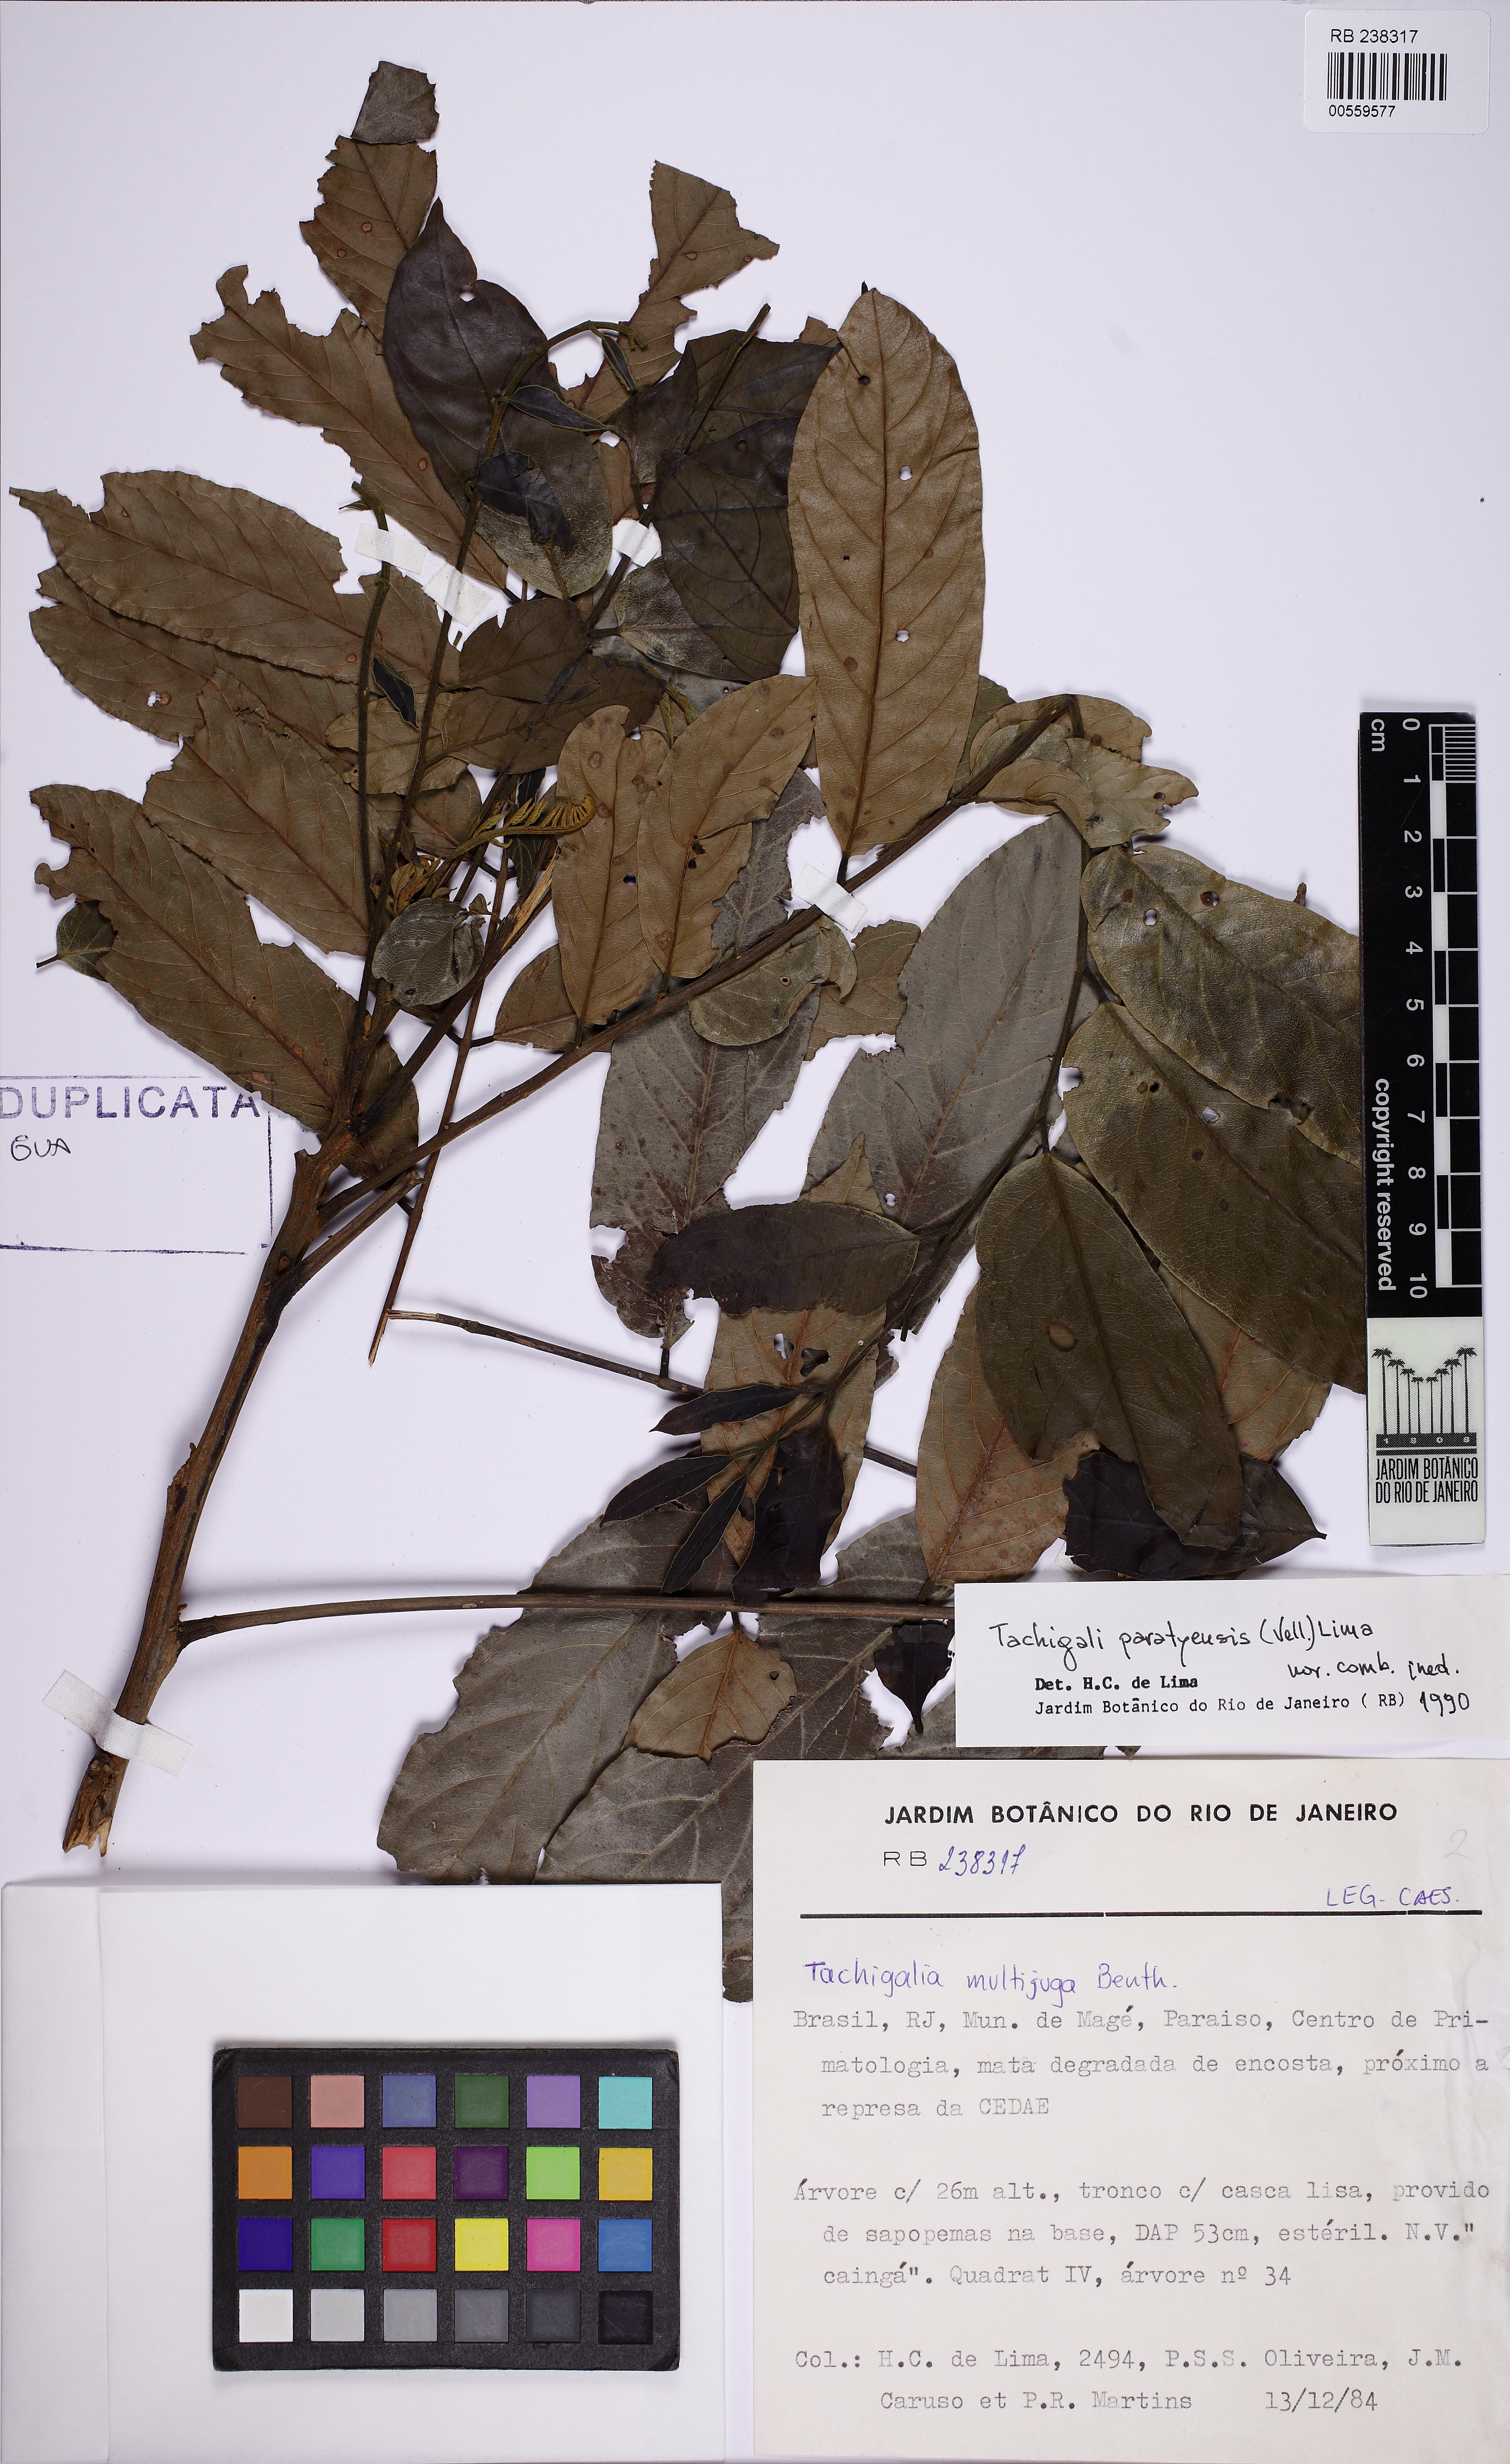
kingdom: Plantae
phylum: Tracheophyta
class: Magnoliopsida
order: Fabales
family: Fabaceae
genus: Tachigali
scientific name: Tachigali paratyensis
